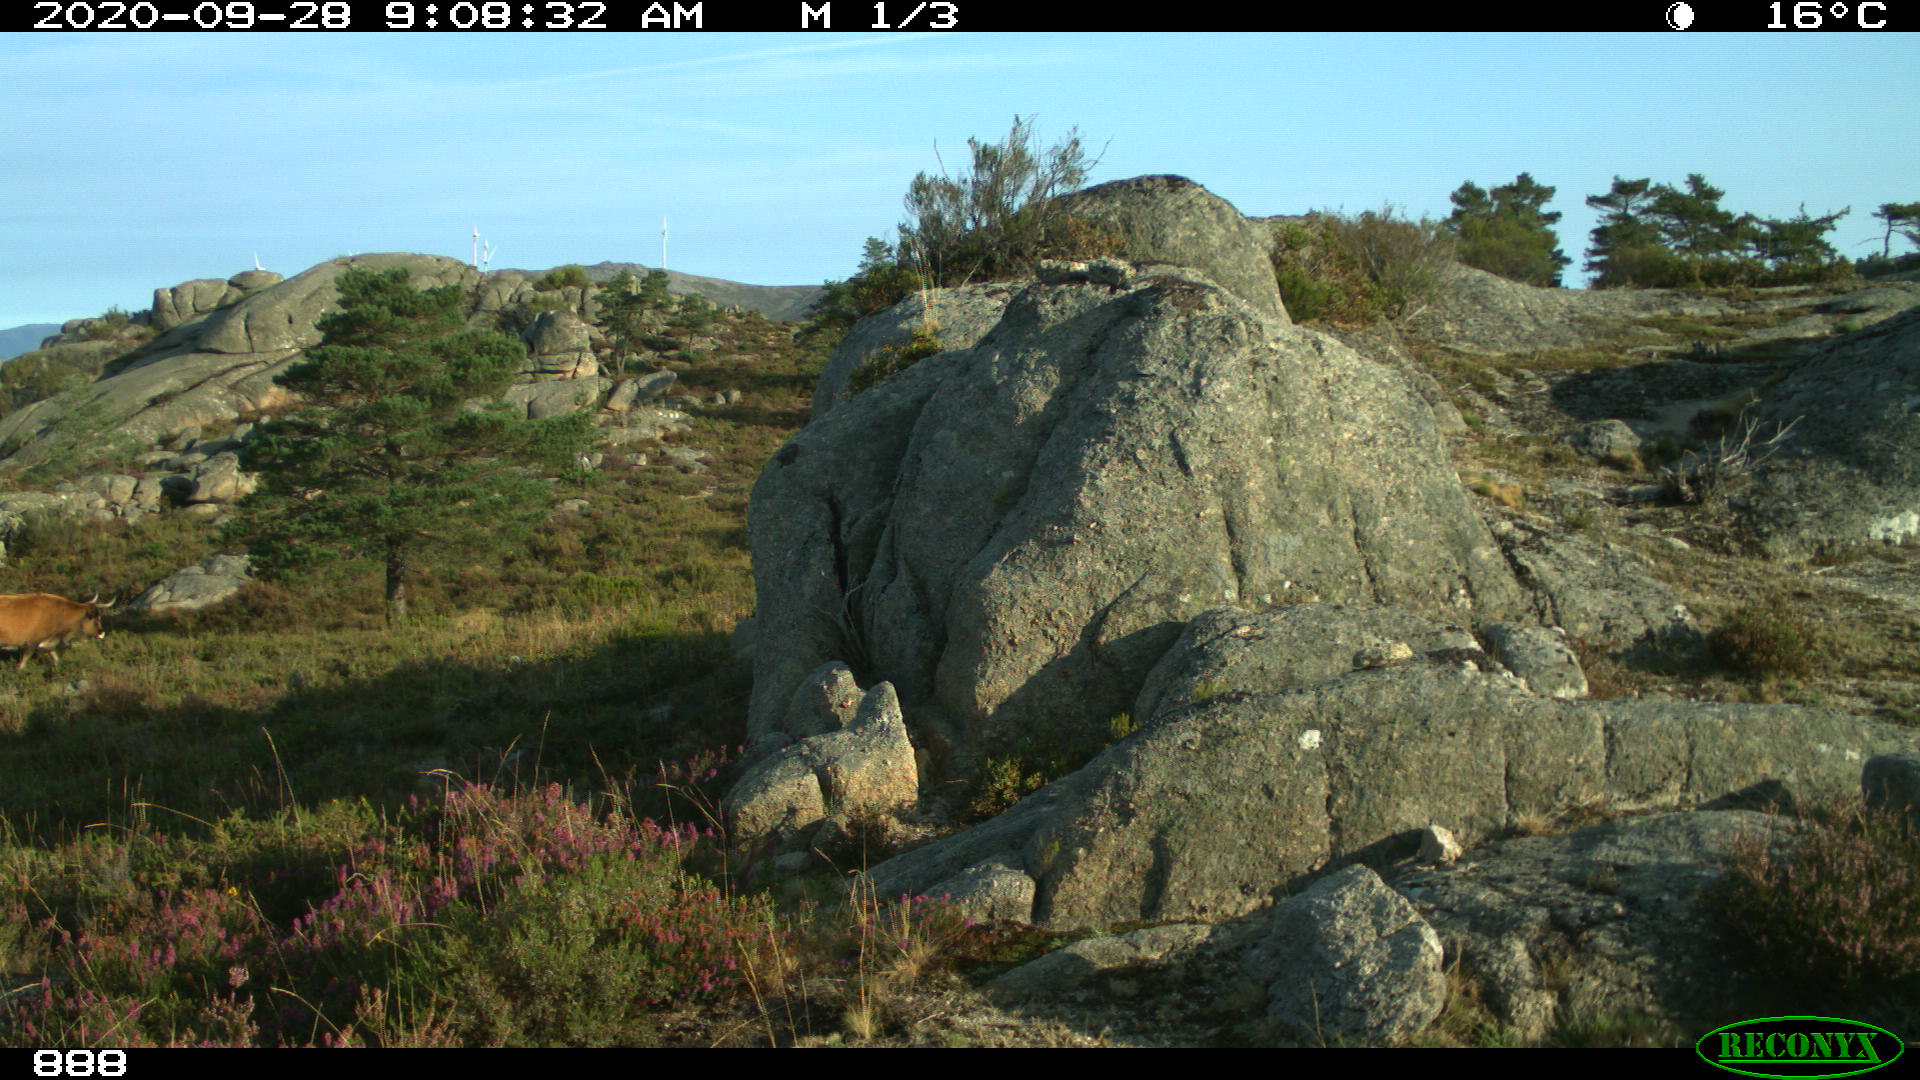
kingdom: Animalia
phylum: Chordata
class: Mammalia
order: Artiodactyla
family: Bovidae
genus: Bos
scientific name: Bos taurus
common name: Domesticated cattle
